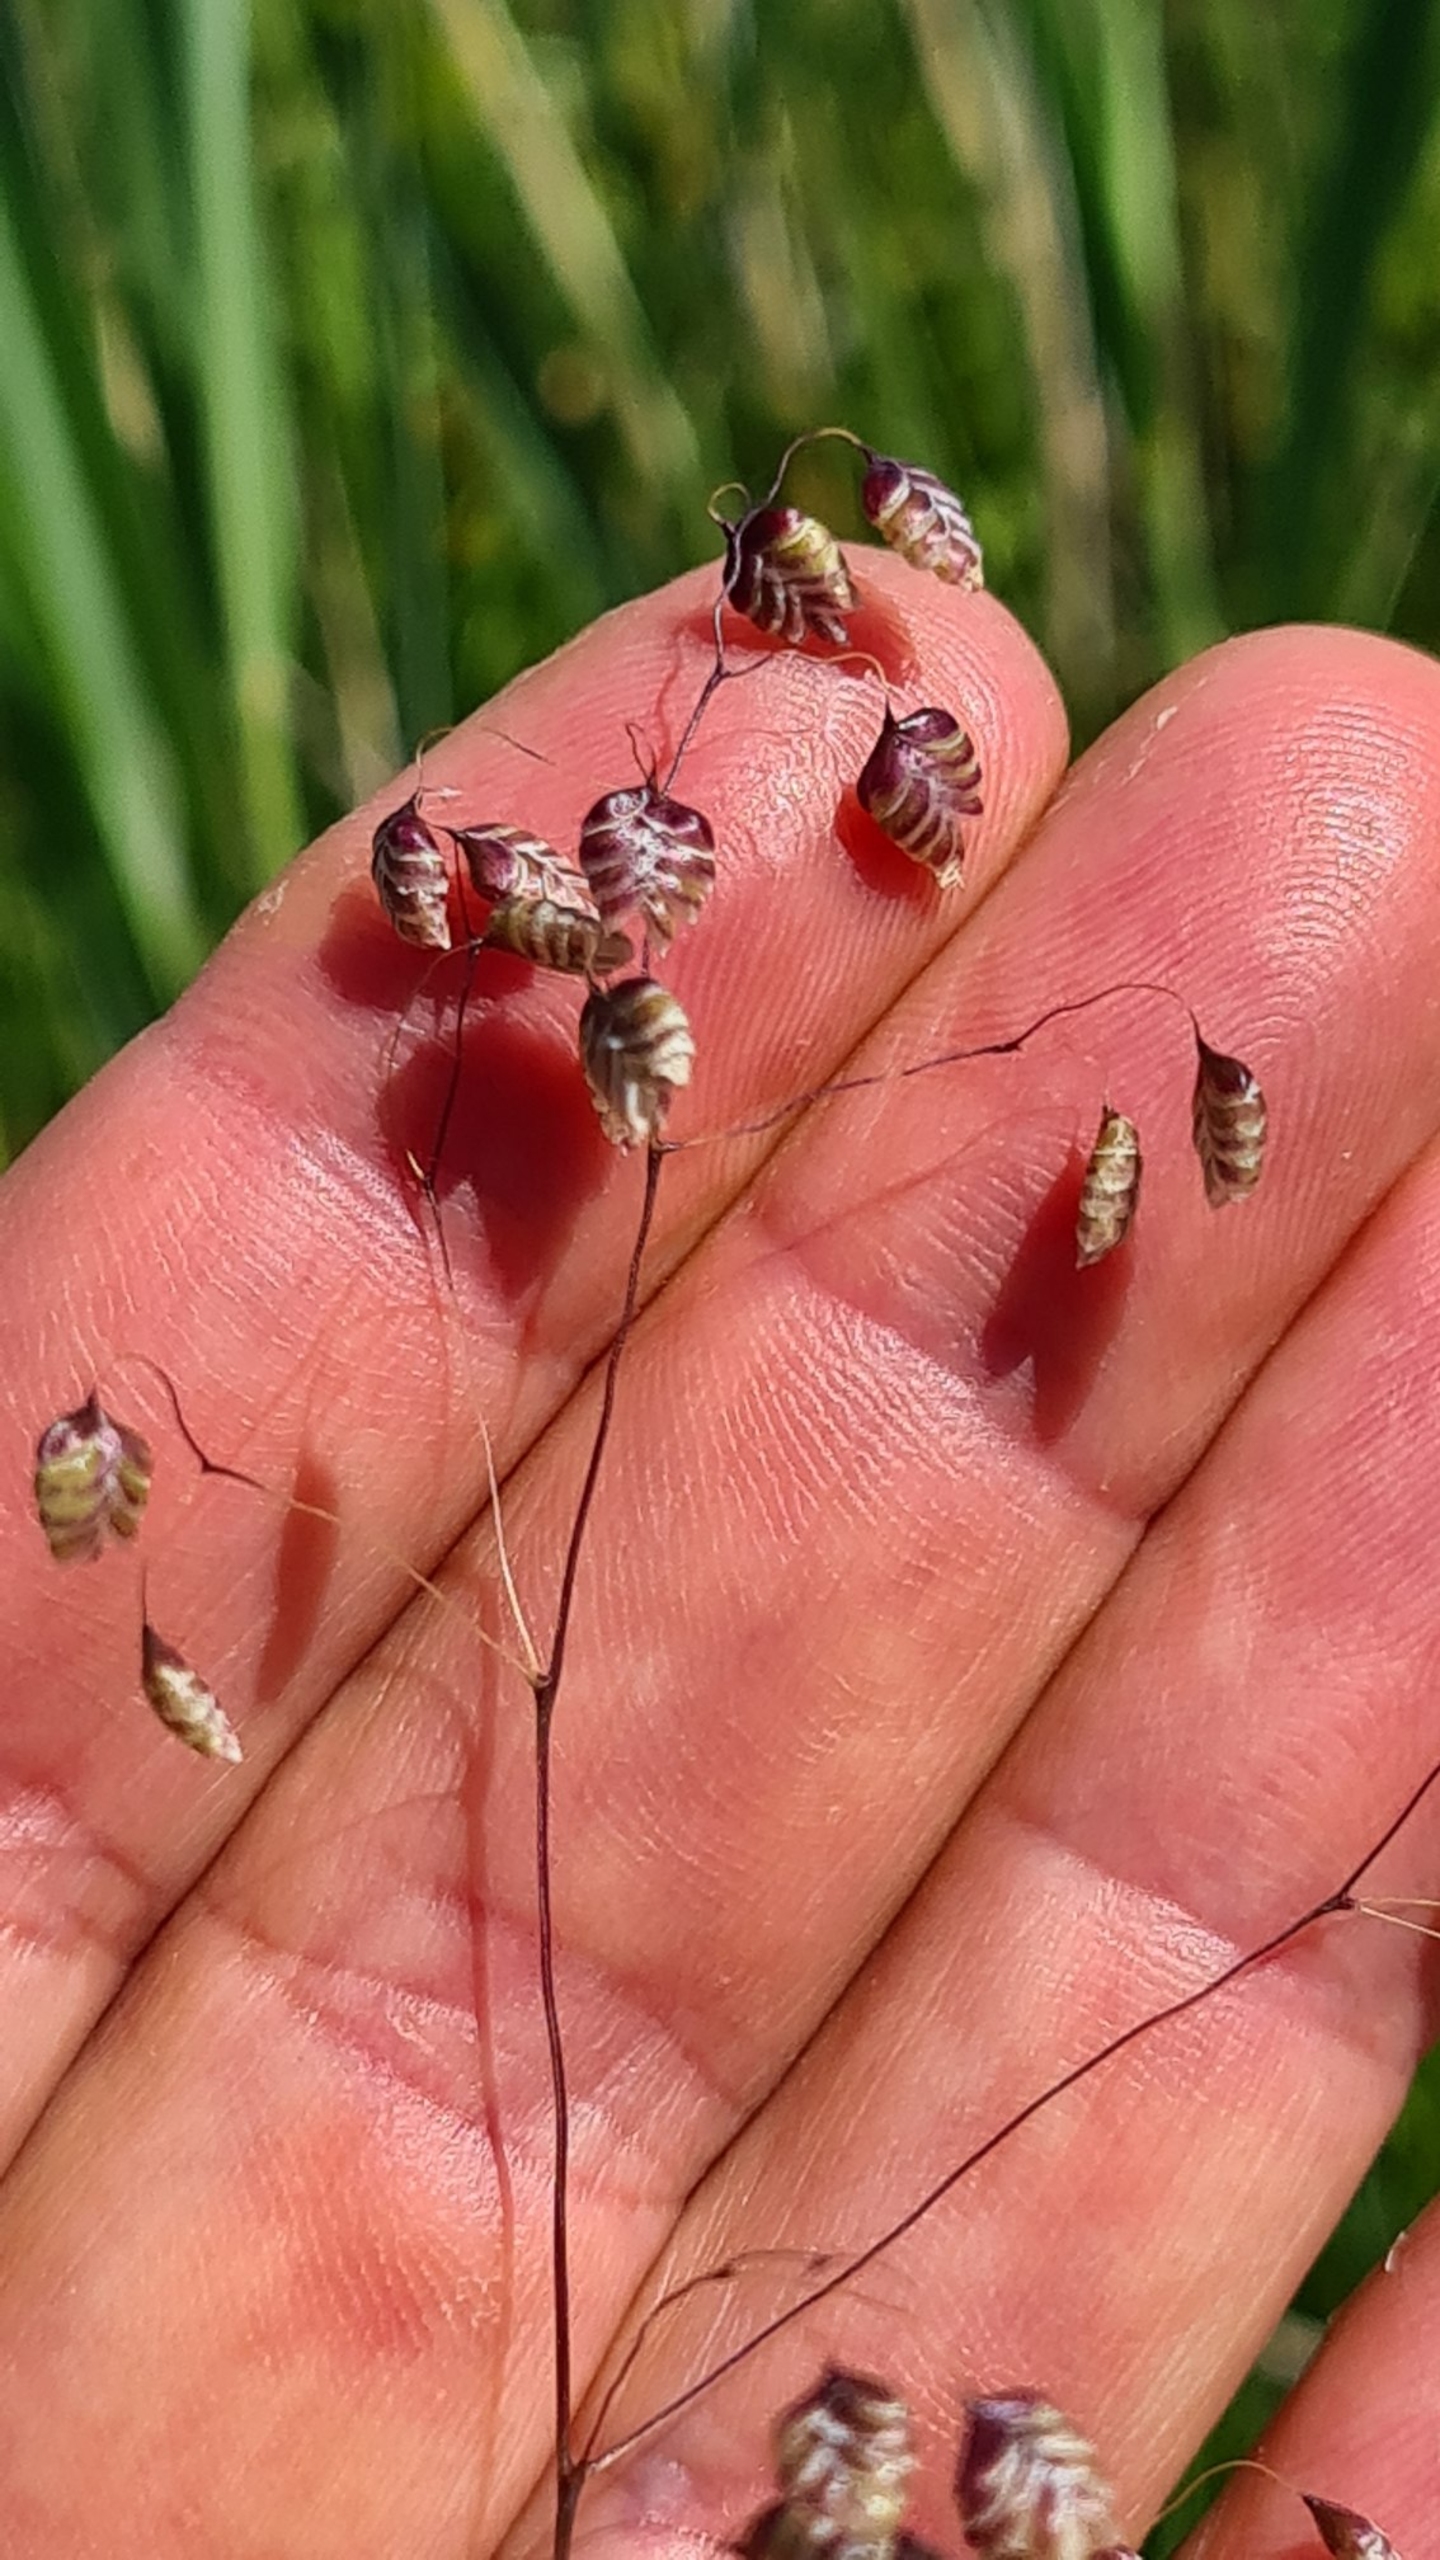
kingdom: Plantae
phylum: Tracheophyta
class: Liliopsida
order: Poales
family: Poaceae
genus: Briza
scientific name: Briza media
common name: Hjertegræs
